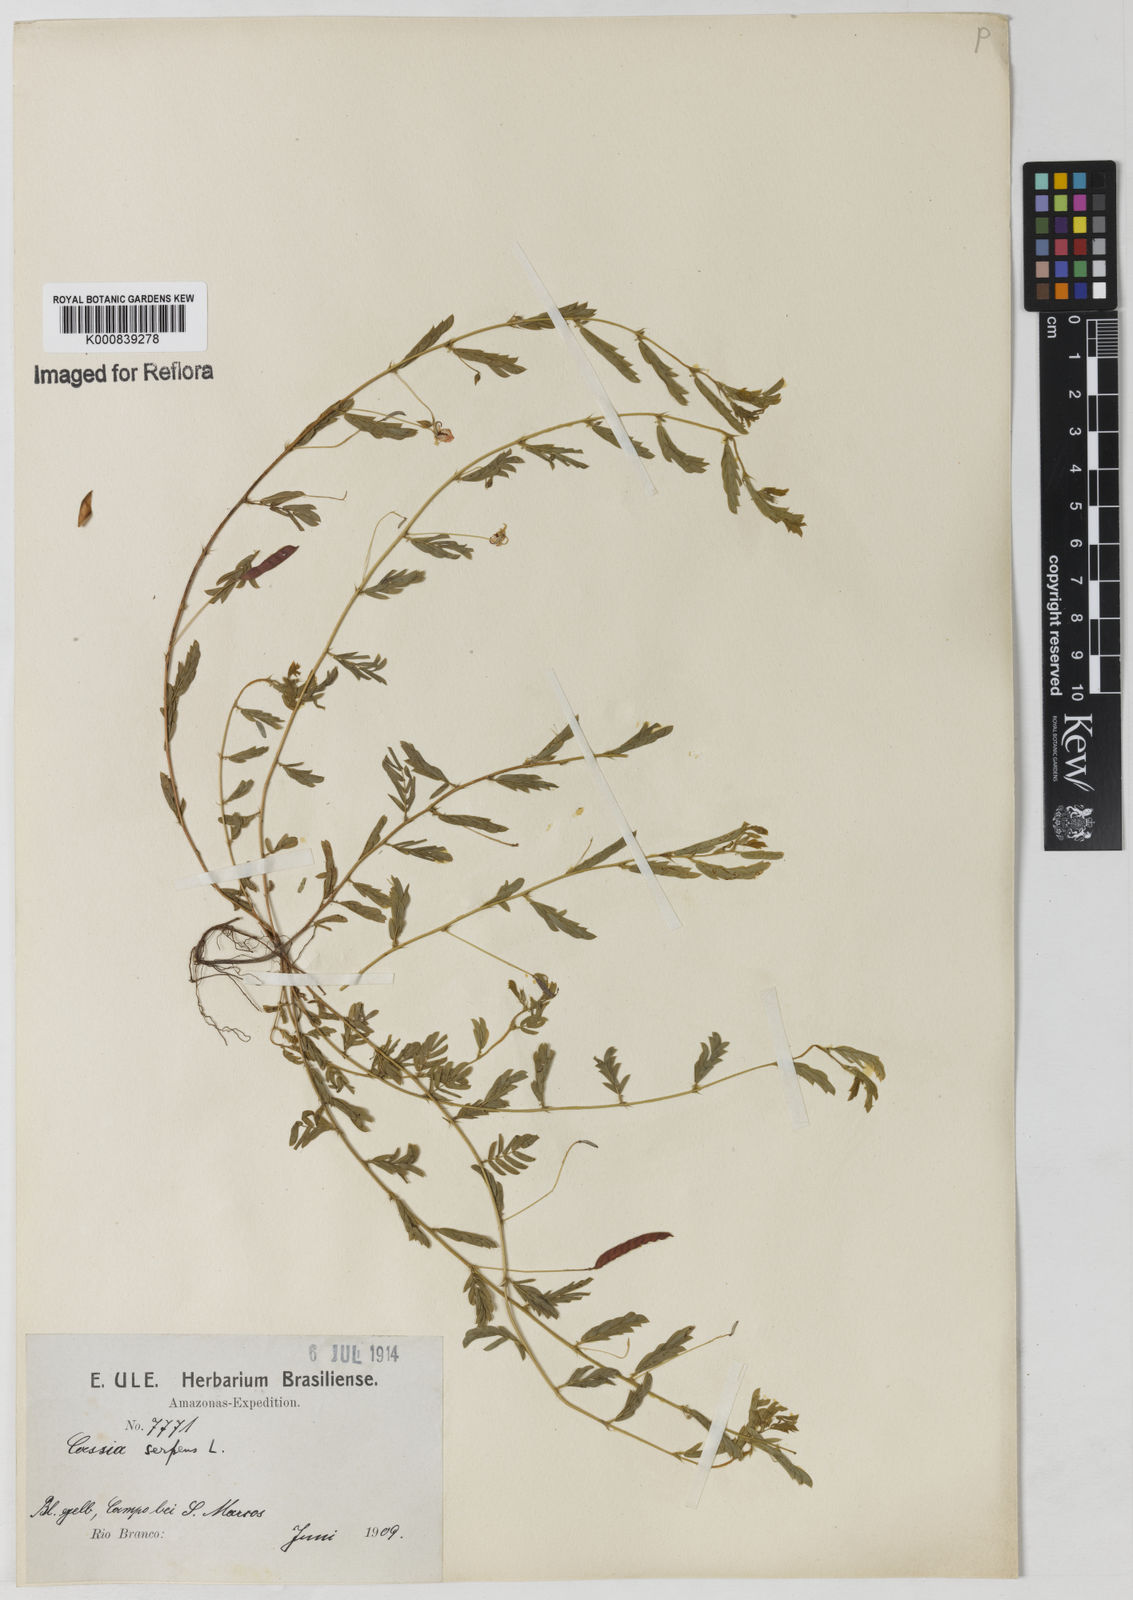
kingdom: Plantae
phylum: Tracheophyta
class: Magnoliopsida
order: Fabales
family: Fabaceae
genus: Chamaecrista
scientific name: Chamaecrista serpens
